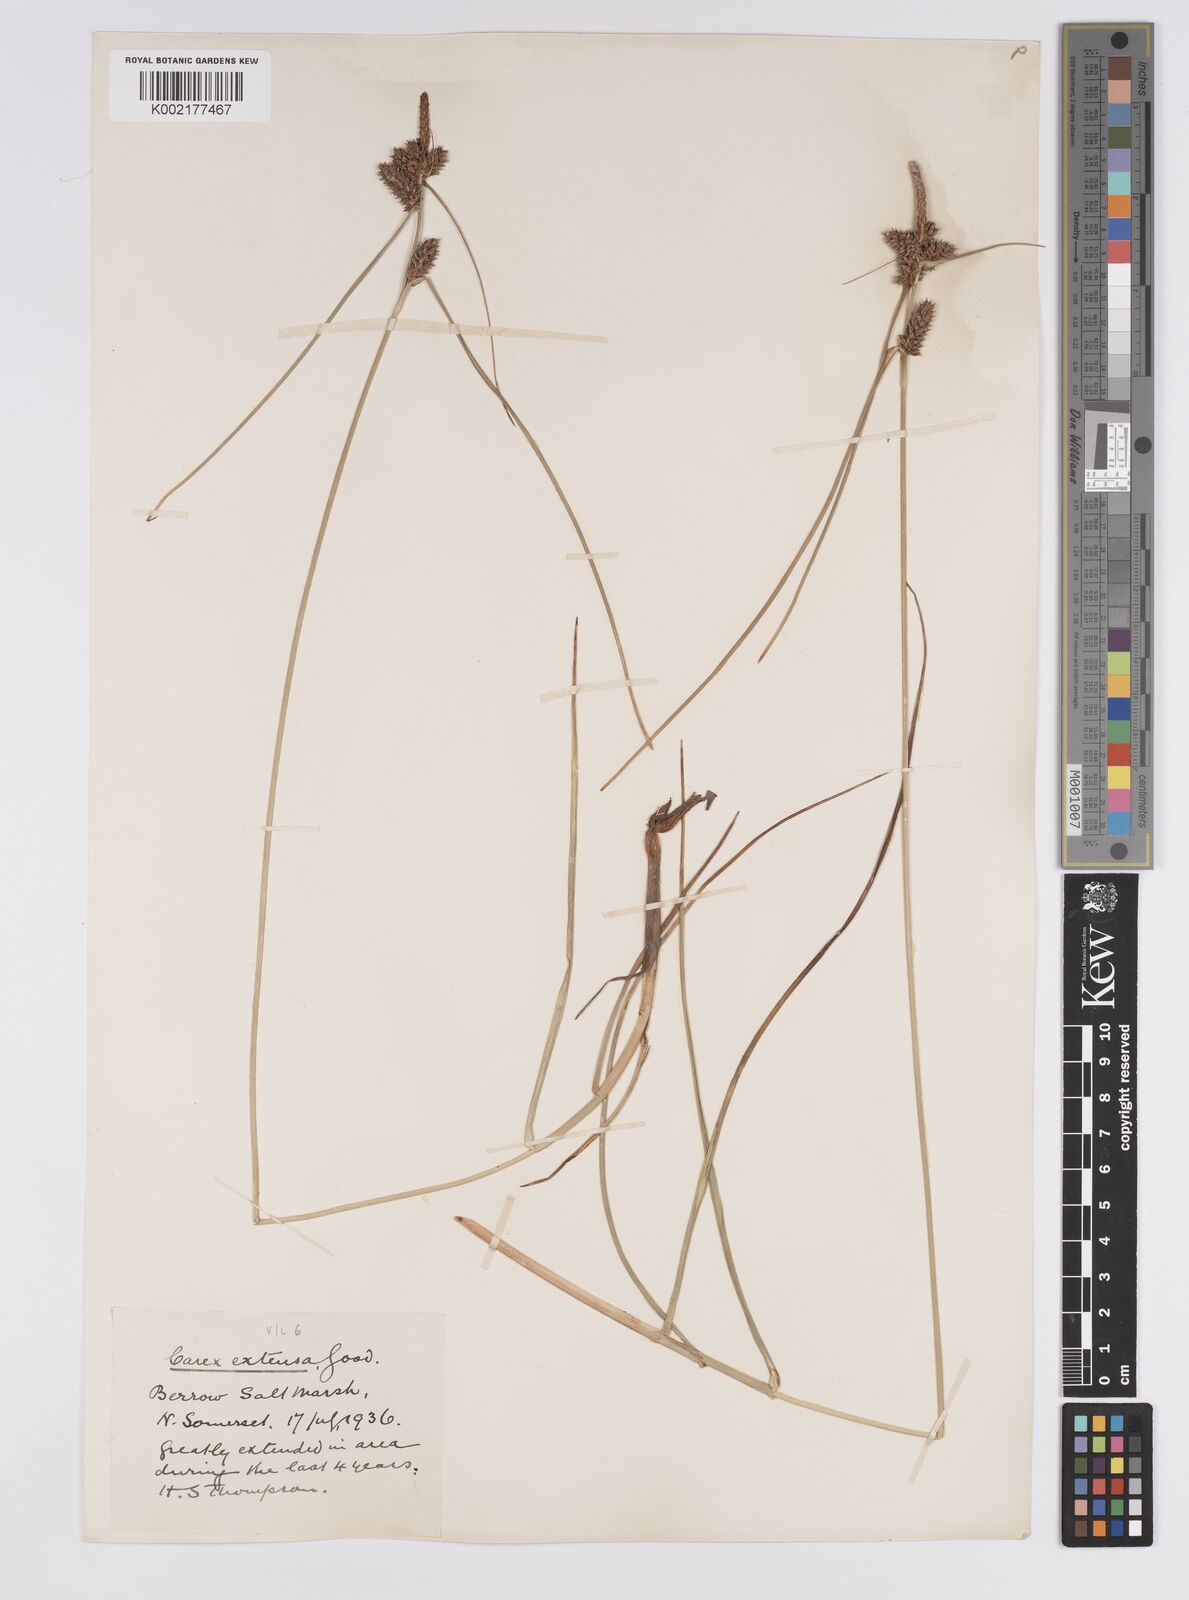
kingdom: Plantae
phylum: Tracheophyta
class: Liliopsida
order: Poales
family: Cyperaceae
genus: Carex
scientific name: Carex extensa
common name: Long-bracted sedge
